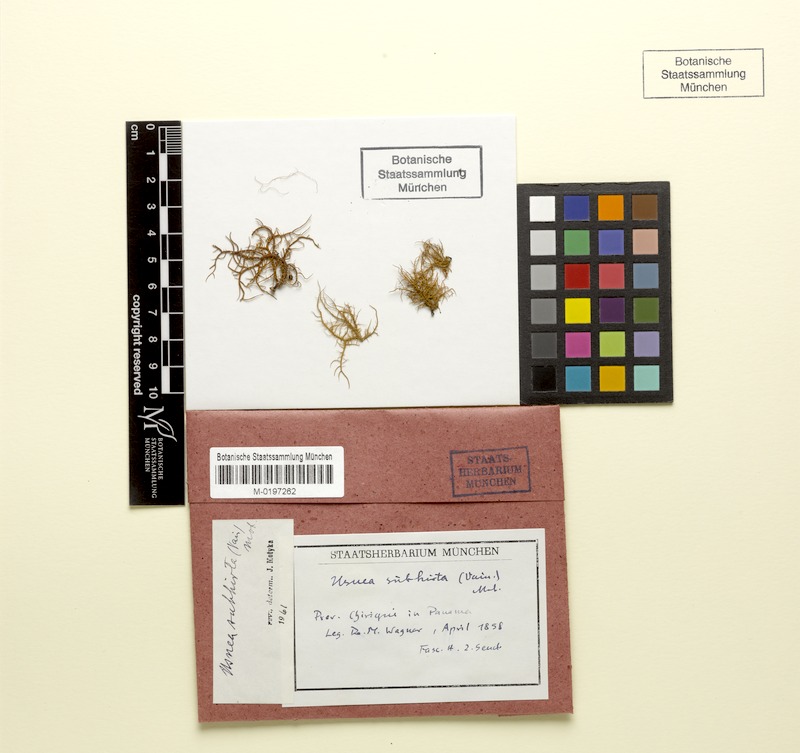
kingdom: Fungi
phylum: Ascomycota
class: Lecanoromycetes
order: Lecanorales
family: Parmeliaceae
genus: Usnea
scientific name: Usnea subhirta
